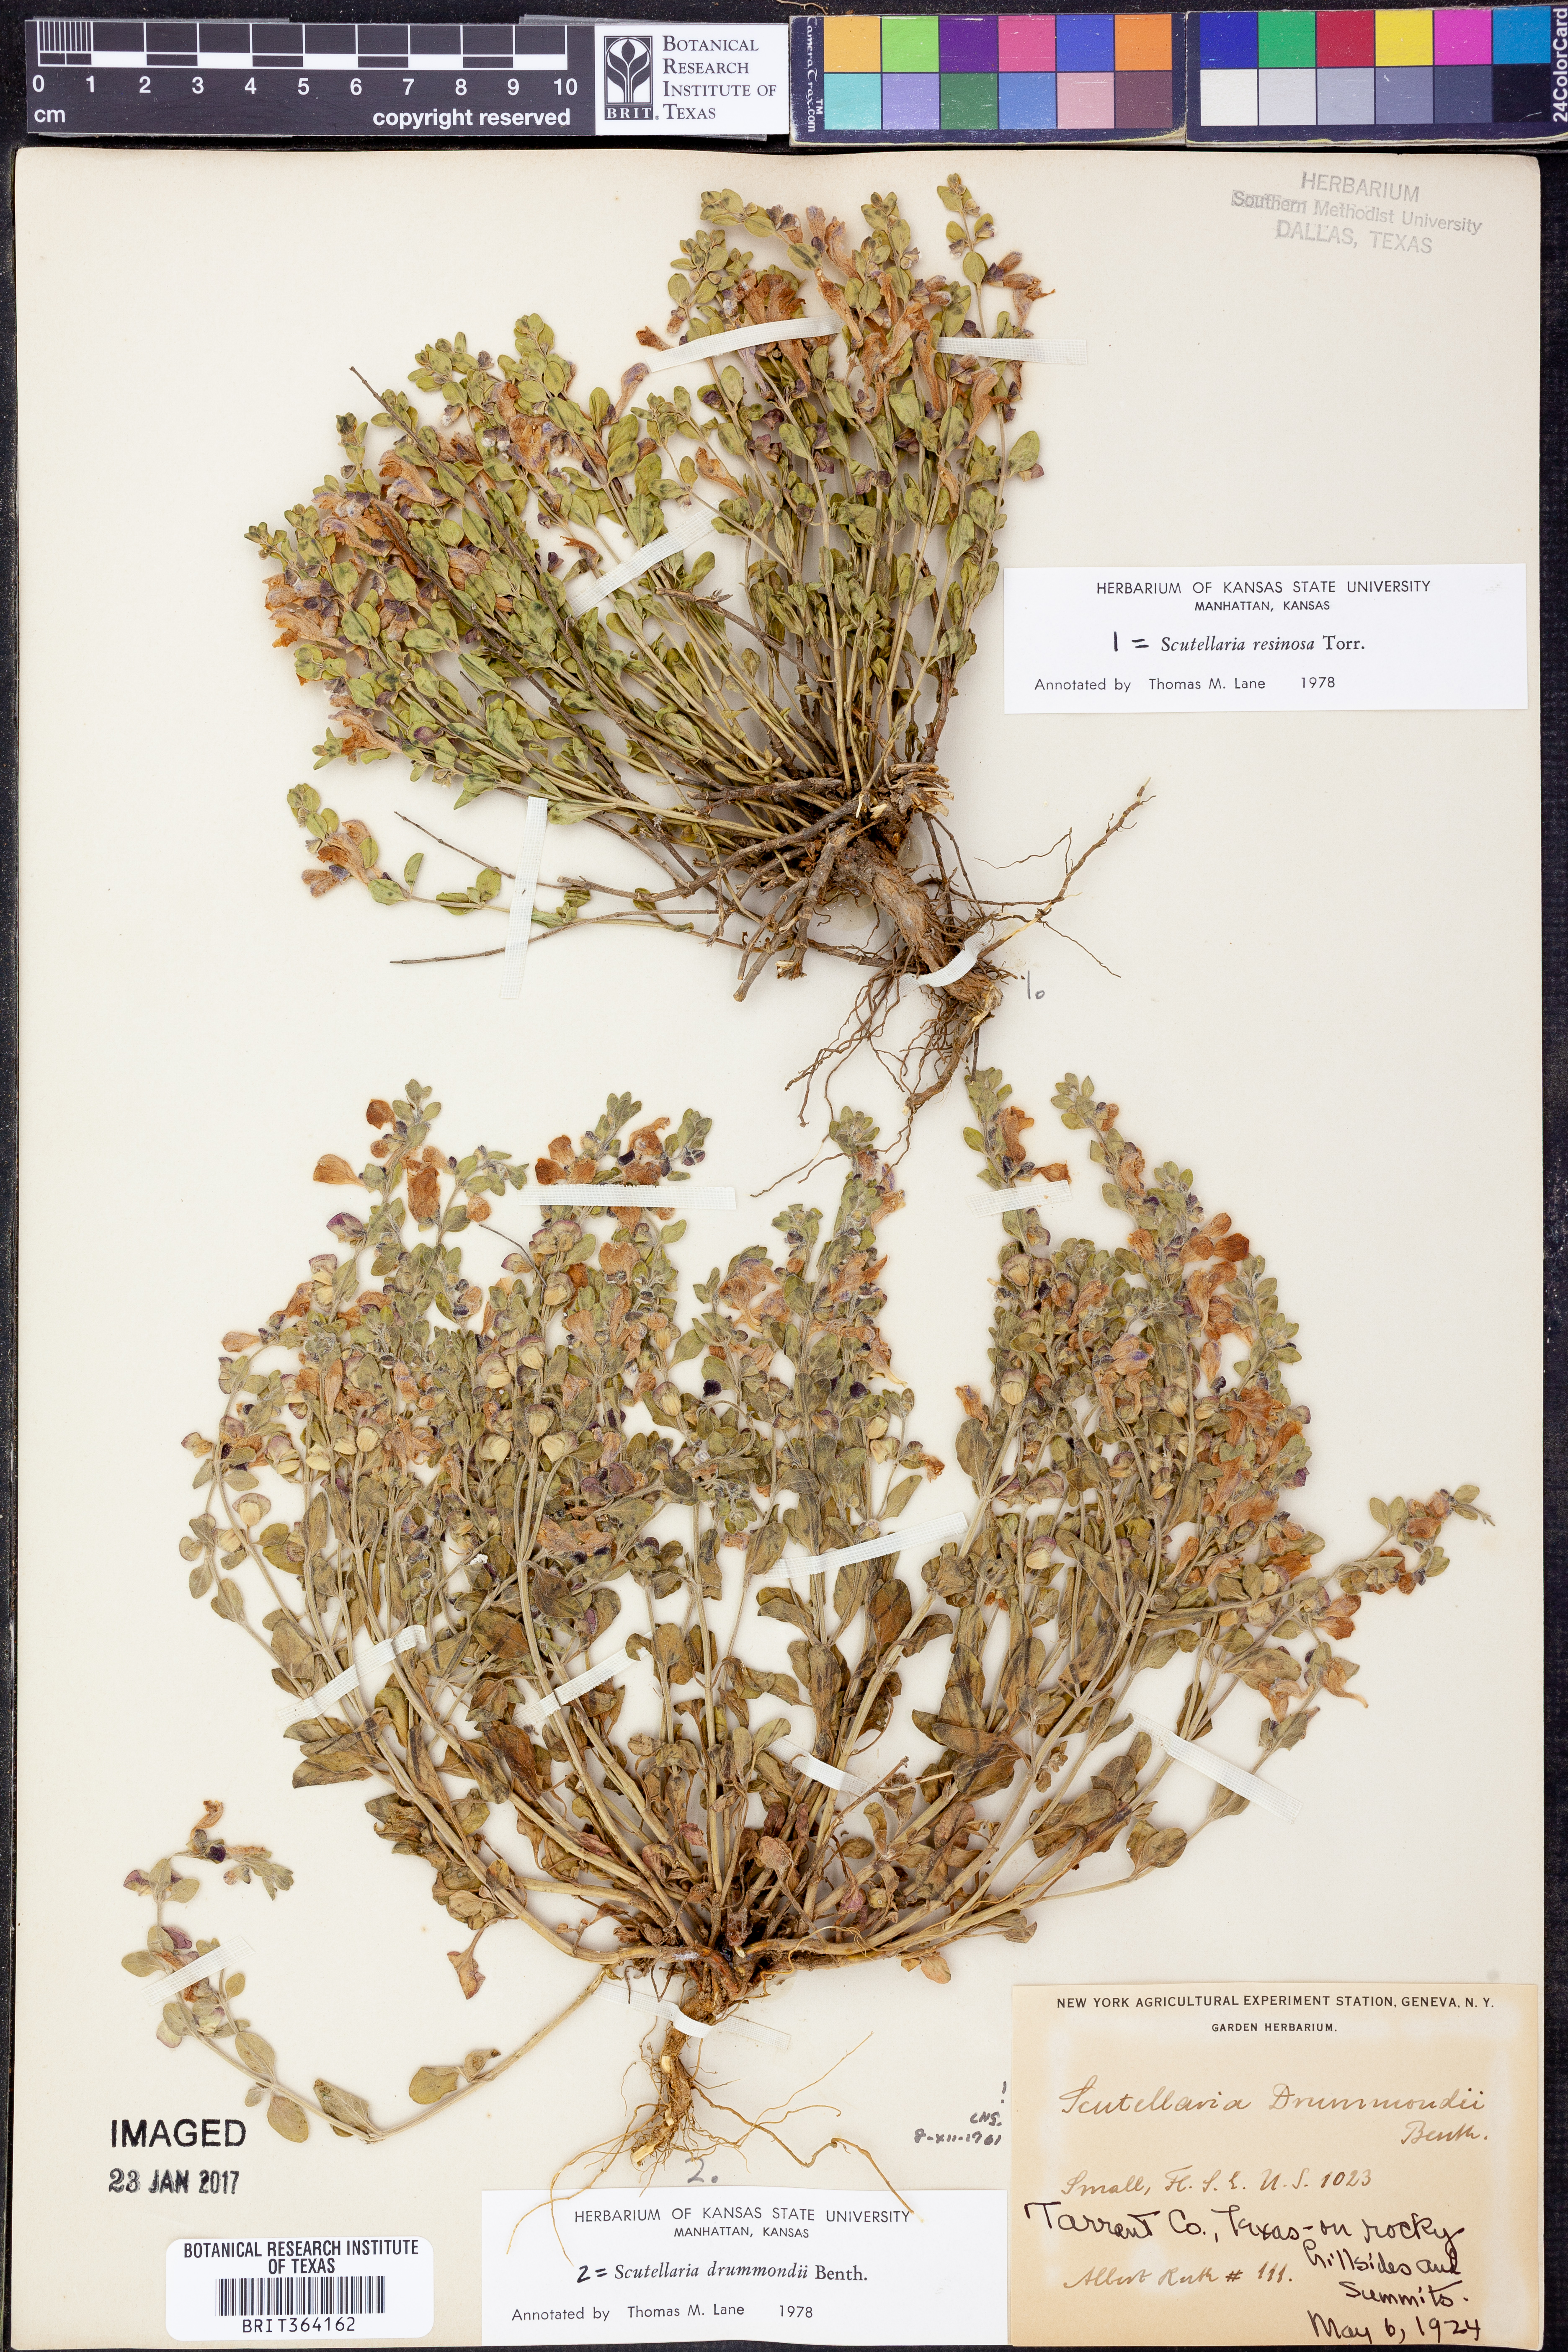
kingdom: Plantae
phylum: Tracheophyta
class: Magnoliopsida
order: Lamiales
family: Lamiaceae
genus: Scutellaria
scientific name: Scutellaria resinosa
